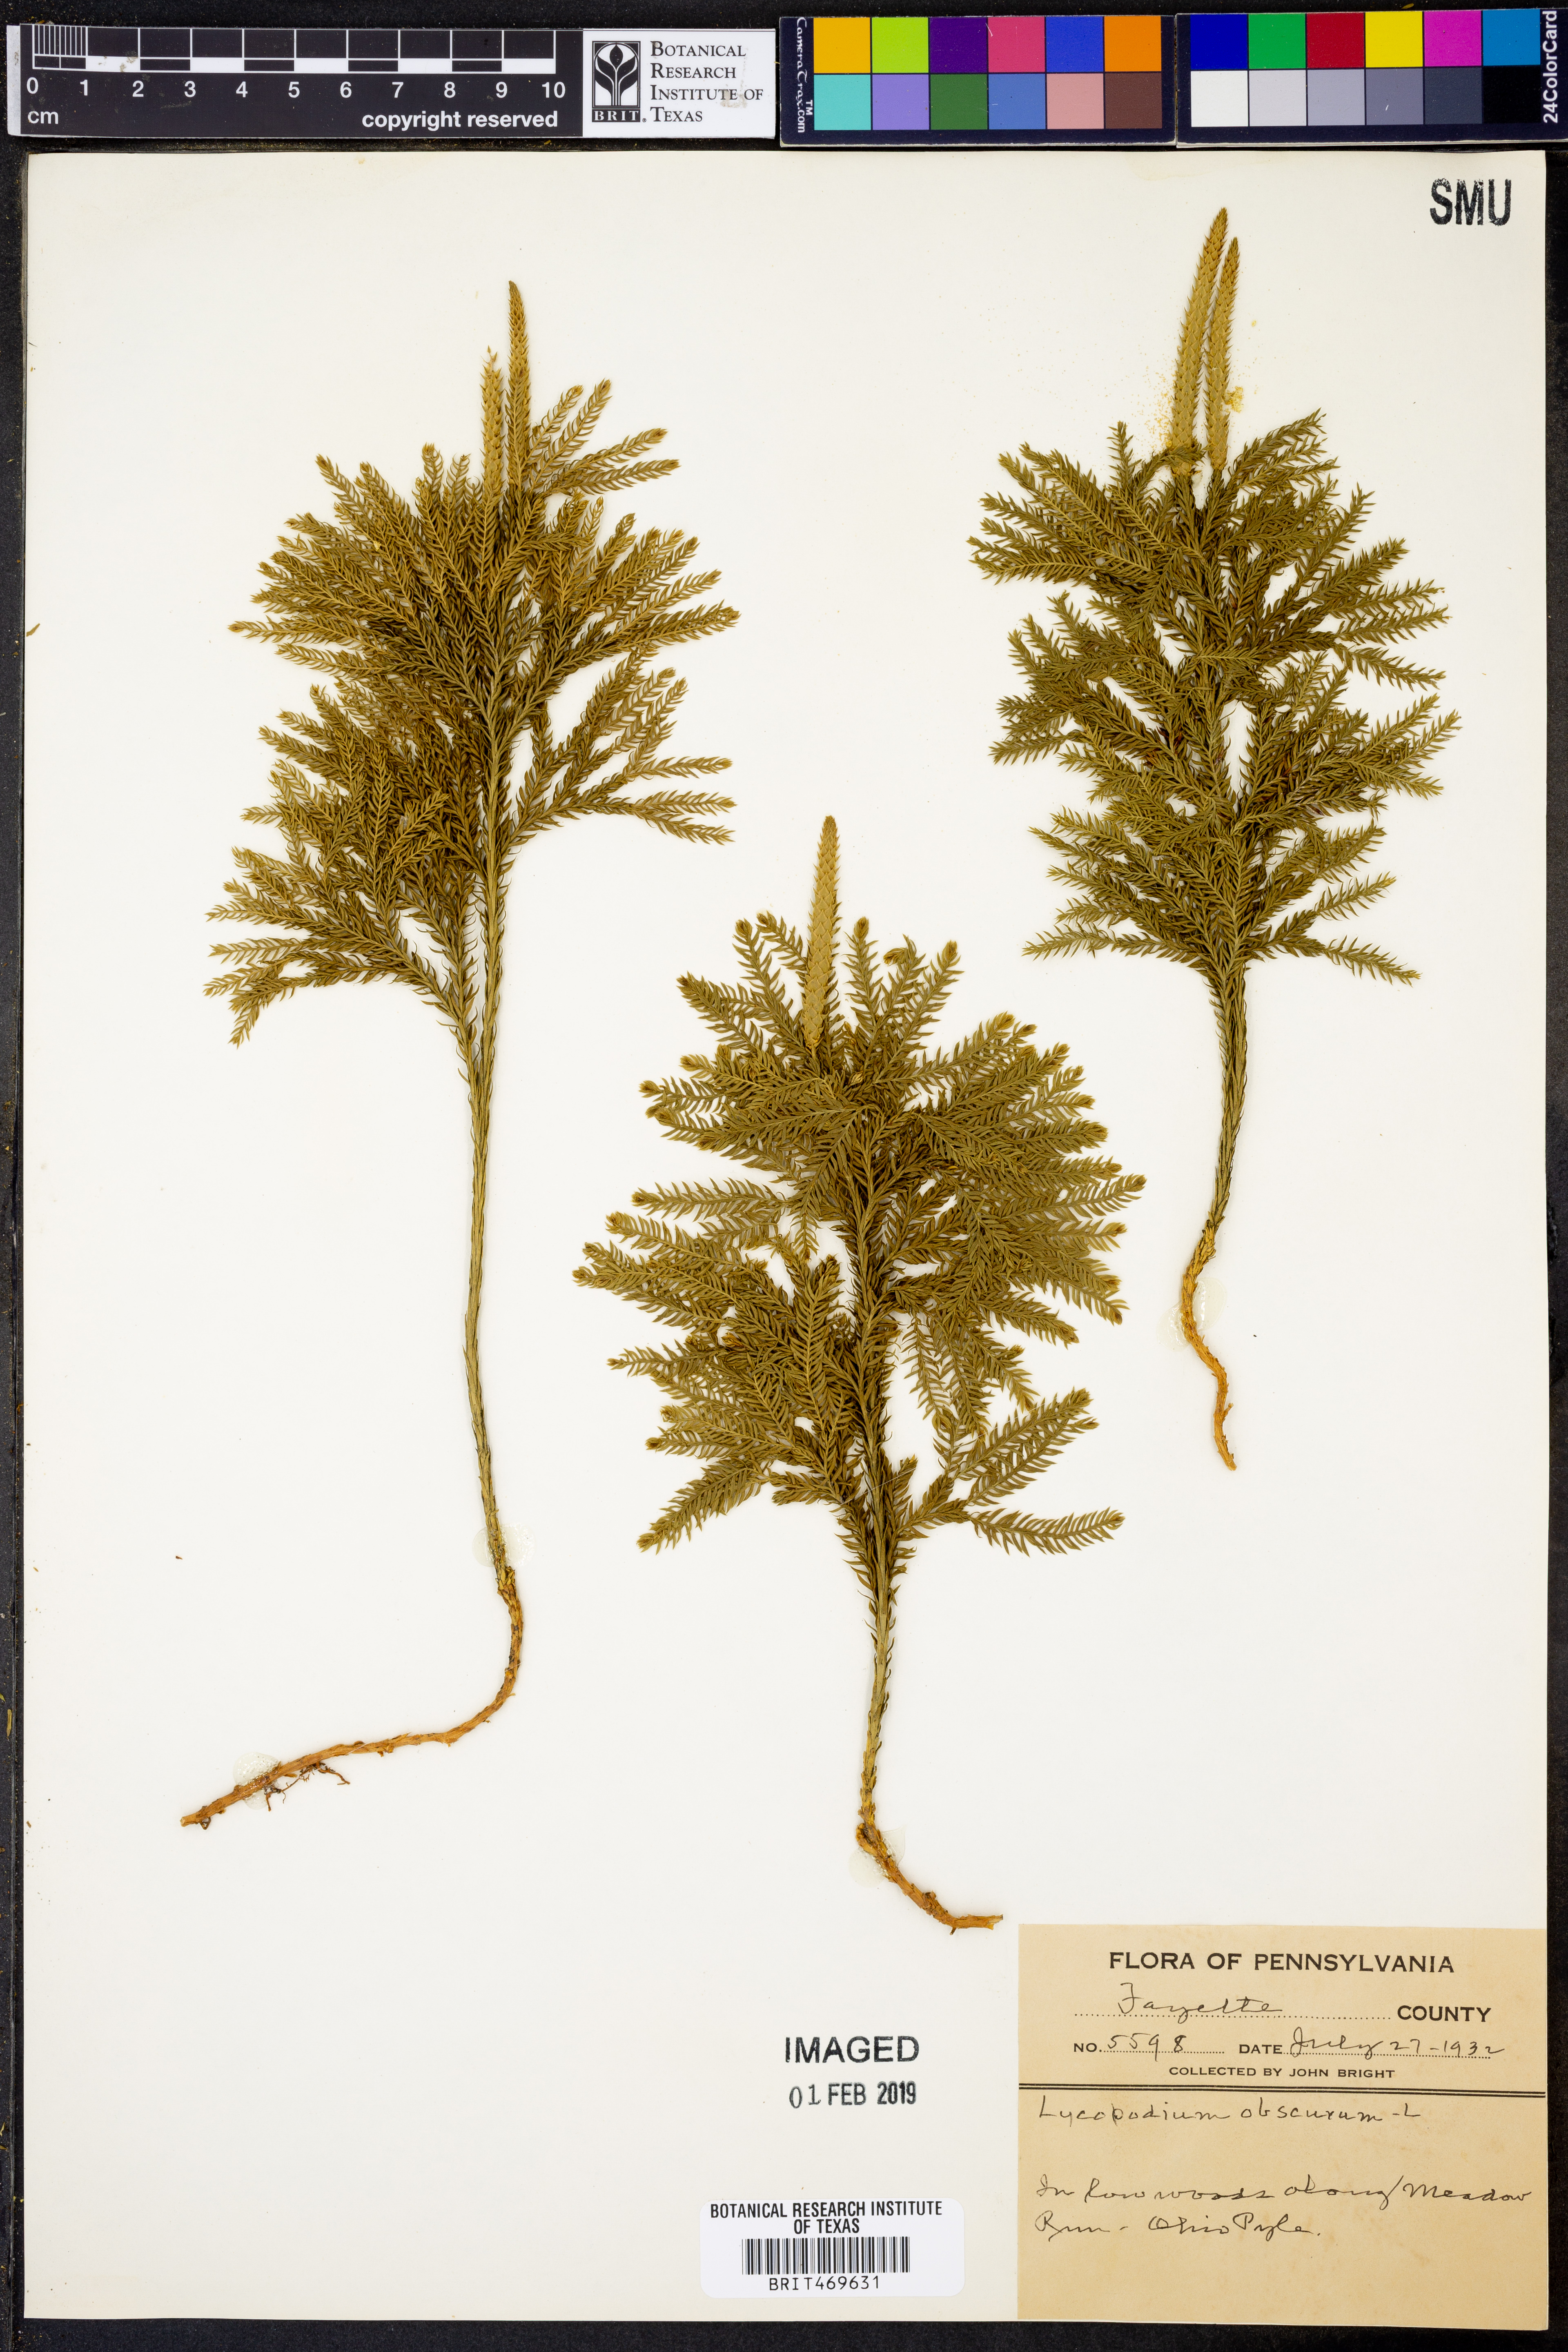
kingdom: Plantae
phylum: Tracheophyta
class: Lycopodiopsida
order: Lycopodiales
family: Lycopodiaceae
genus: Dendrolycopodium
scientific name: Dendrolycopodium obscurum
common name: Common ground-pine
